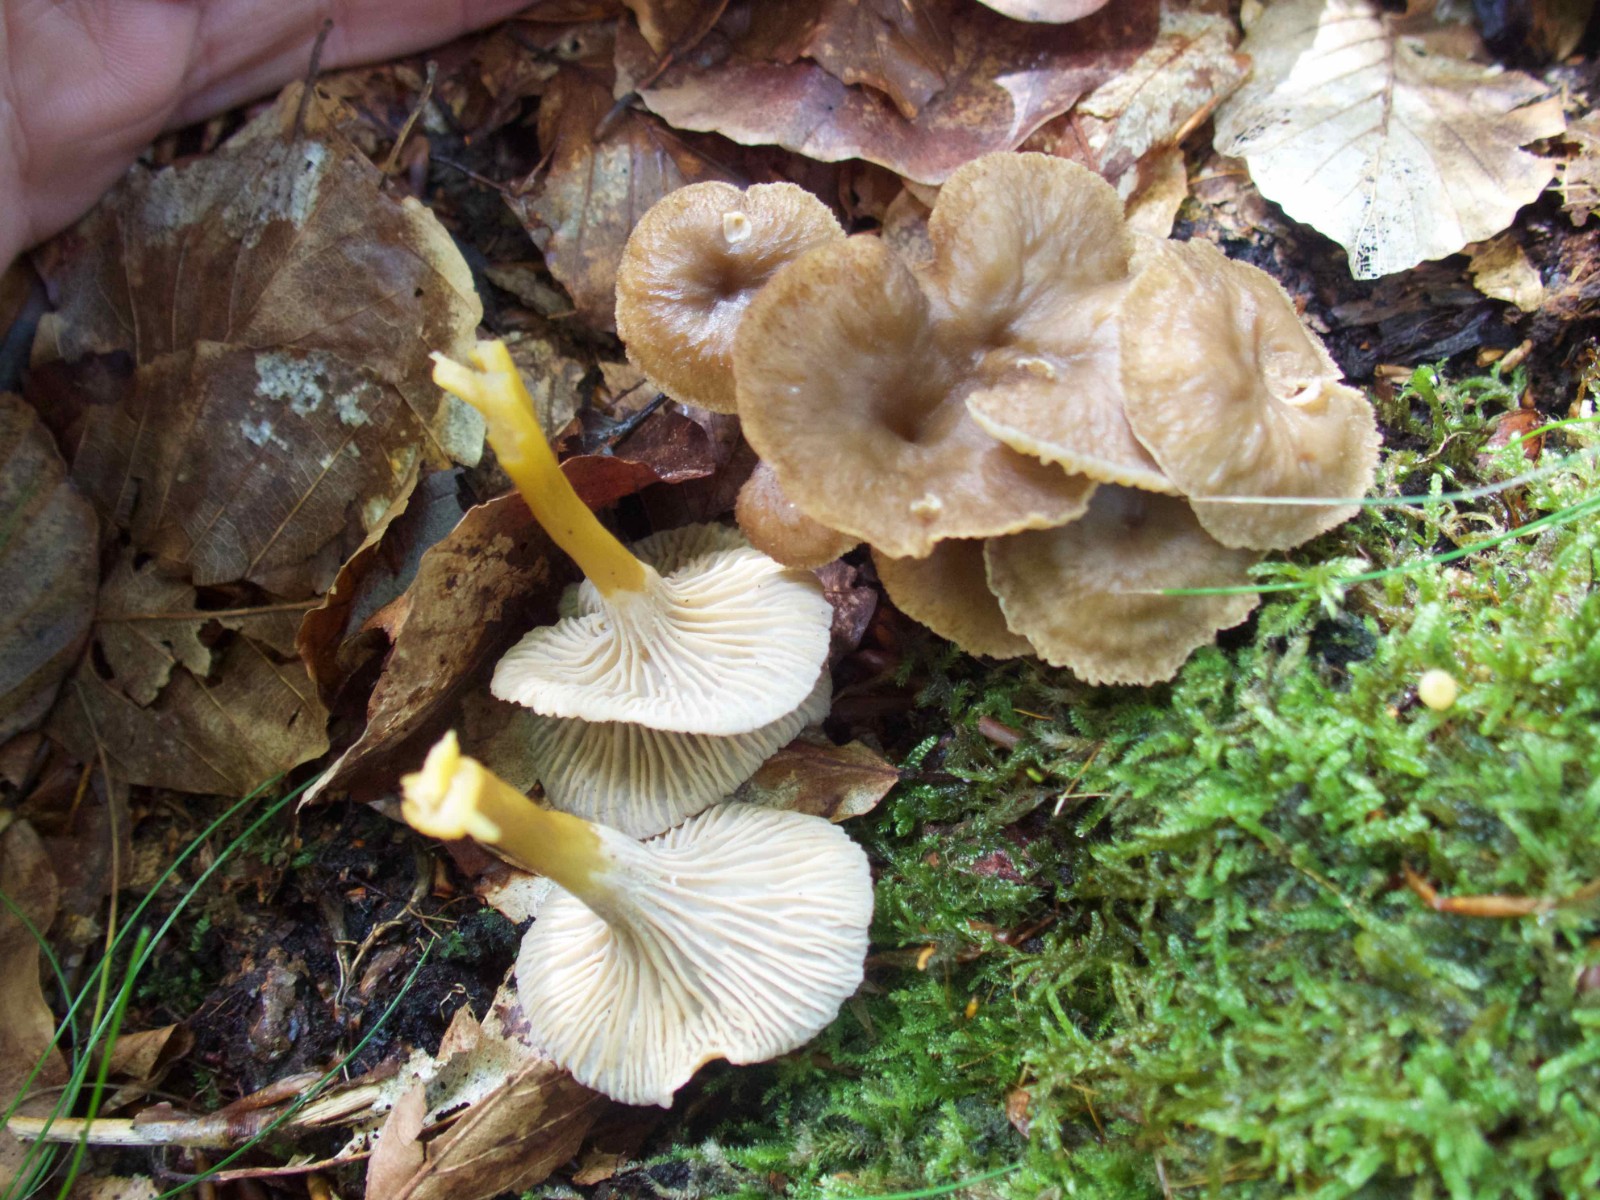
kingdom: Fungi
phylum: Basidiomycota
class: Agaricomycetes
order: Cantharellales
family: Hydnaceae
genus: Craterellus
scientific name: Craterellus tubaeformis
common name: tragt-kantarel
